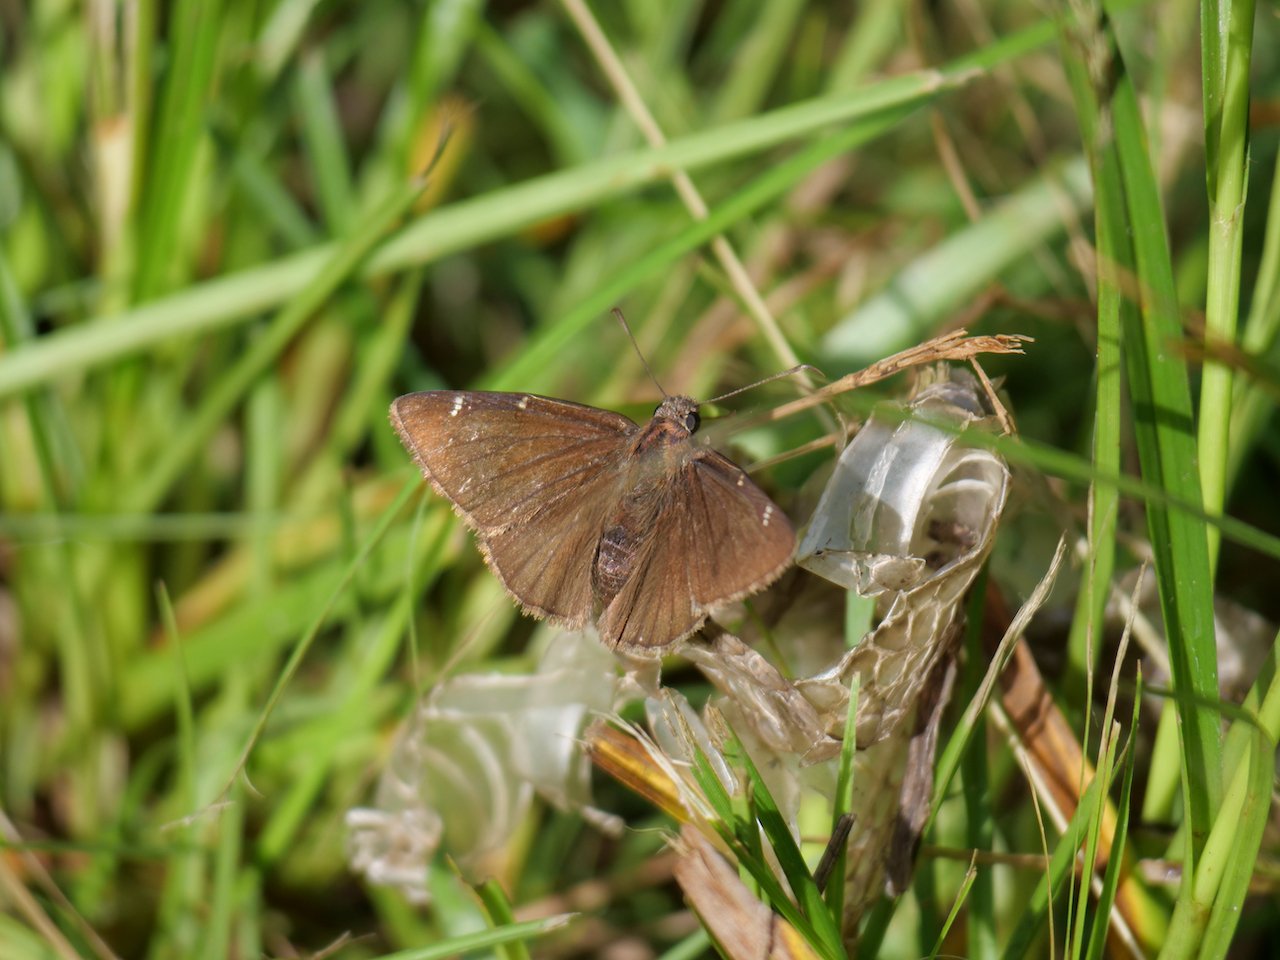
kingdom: Animalia
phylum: Arthropoda
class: Insecta
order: Lepidoptera
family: Hesperiidae
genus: Autochton
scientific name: Autochton
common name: Northern Cloudywing
